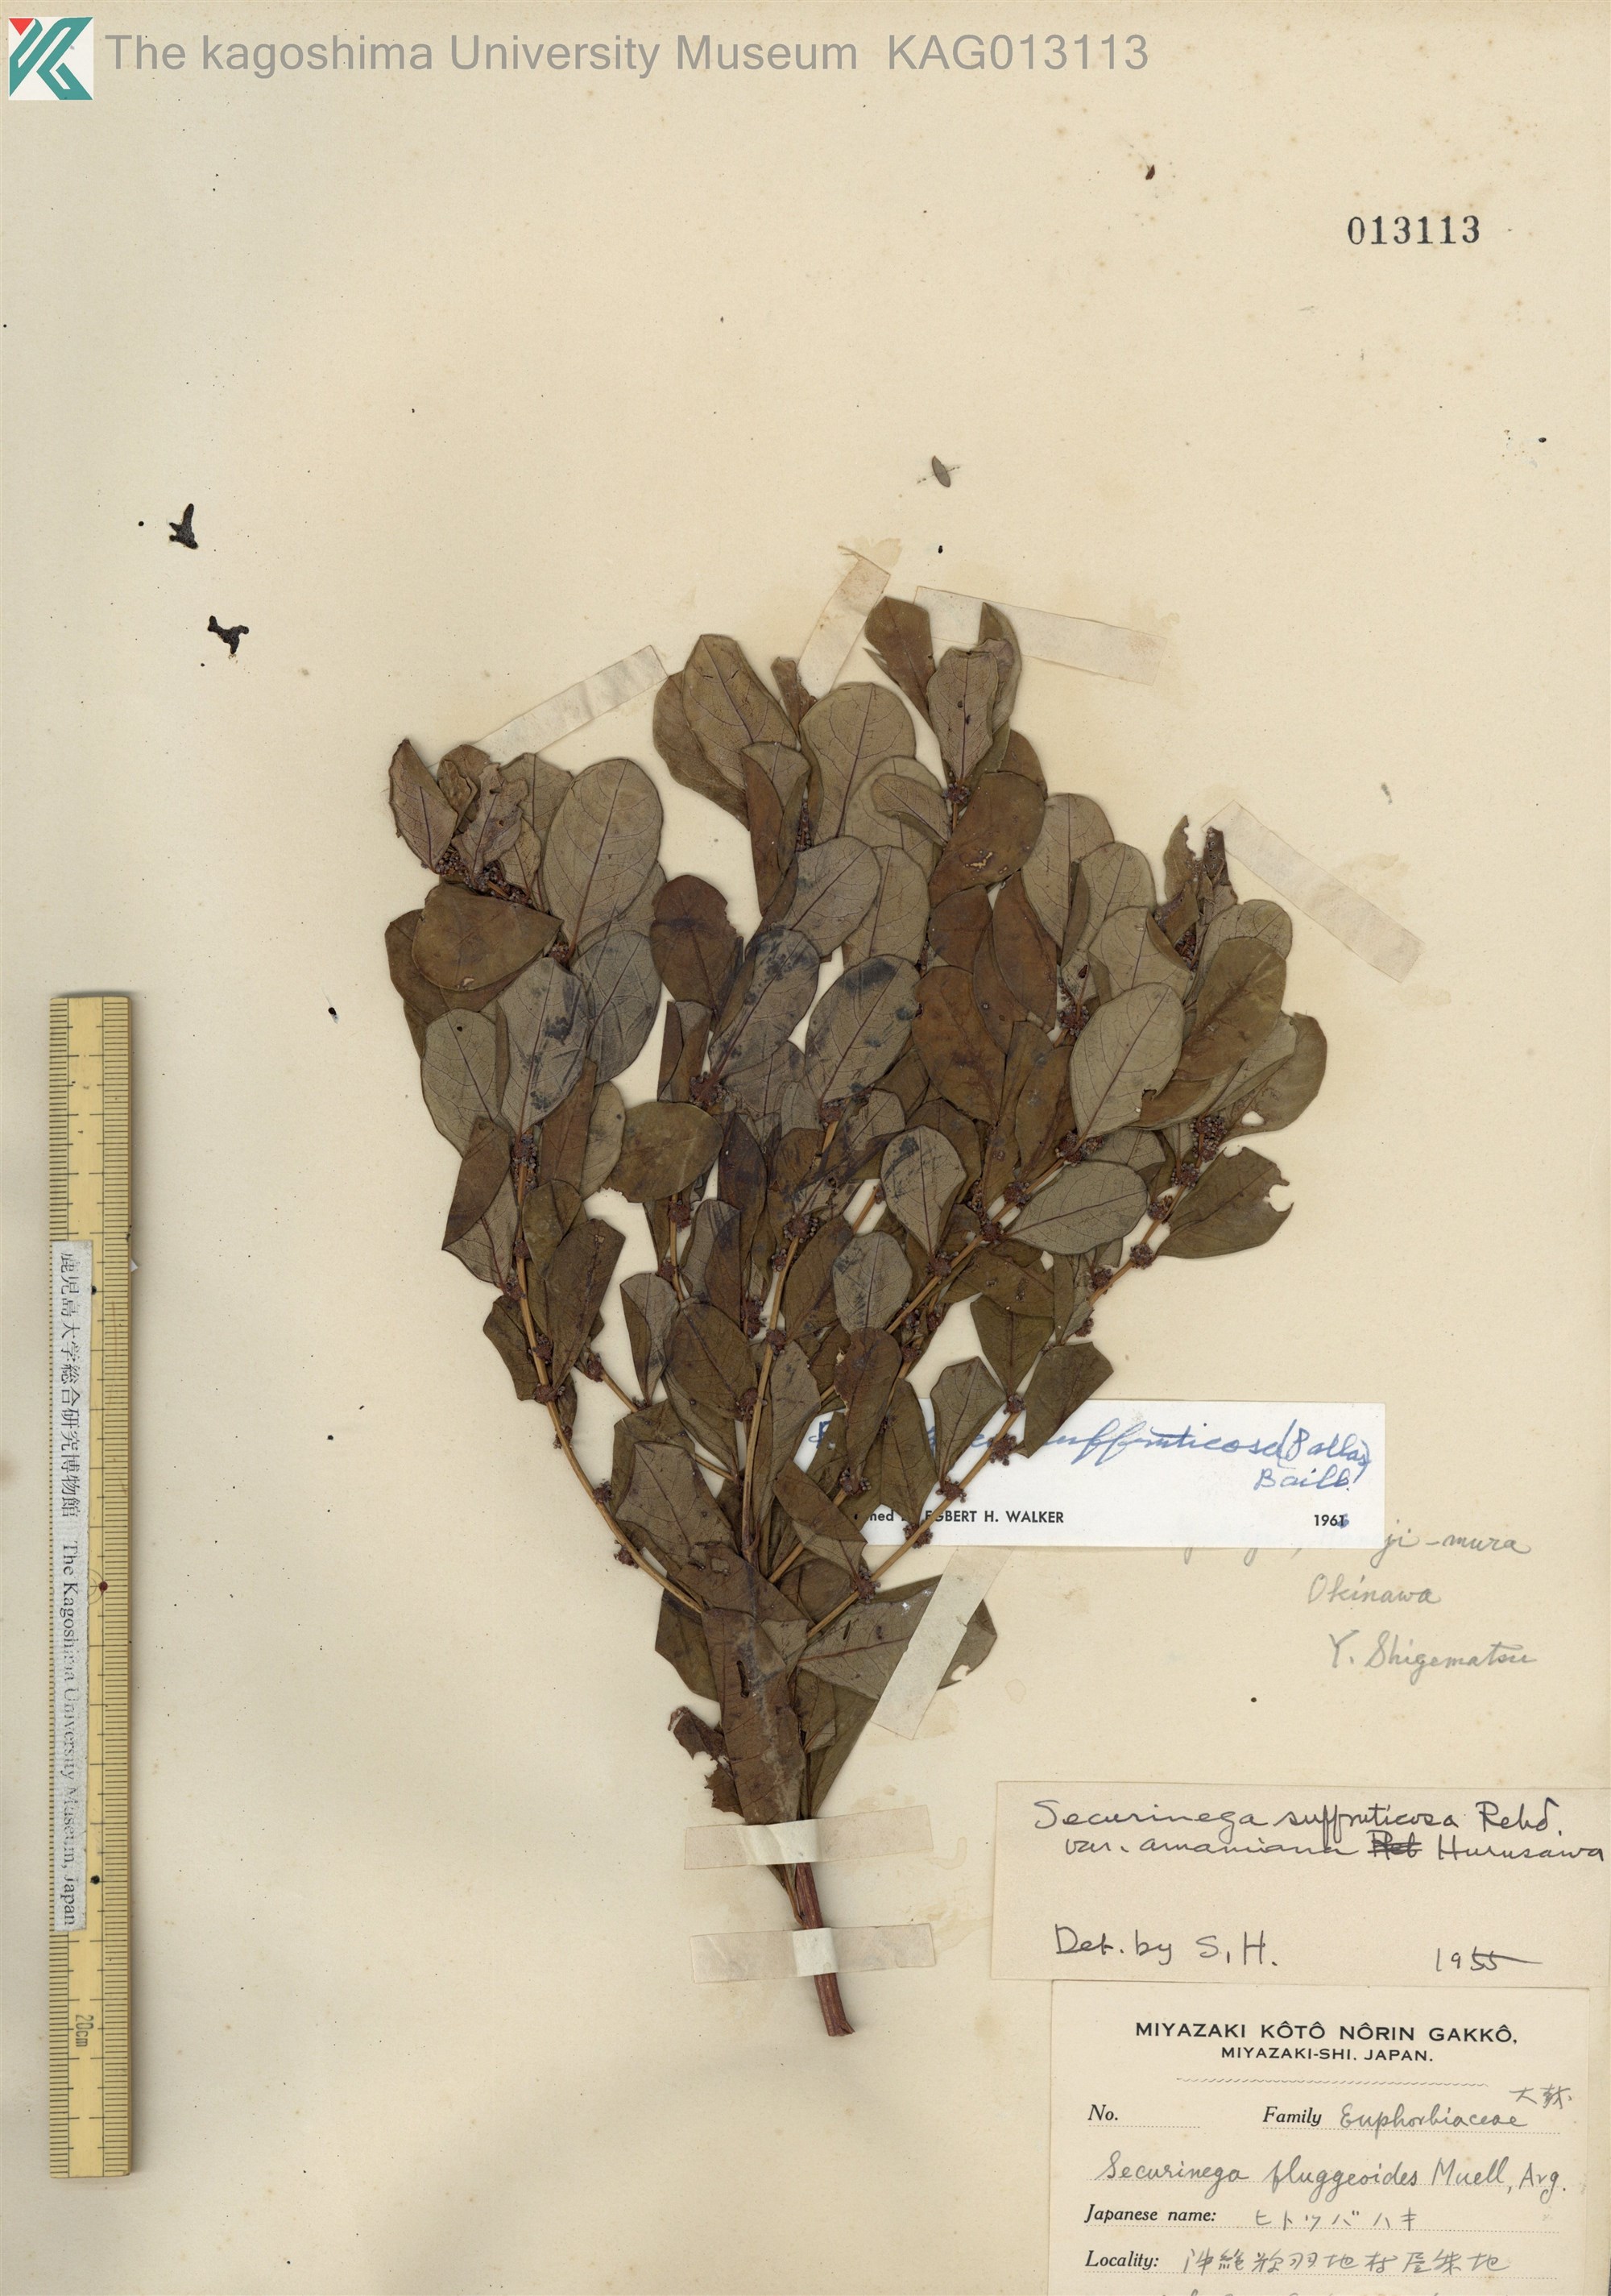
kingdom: Plantae
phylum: Tracheophyta
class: Magnoliopsida
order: Malpighiales
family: Phyllanthaceae
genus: Flueggea
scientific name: Flueggea suffruticosa
